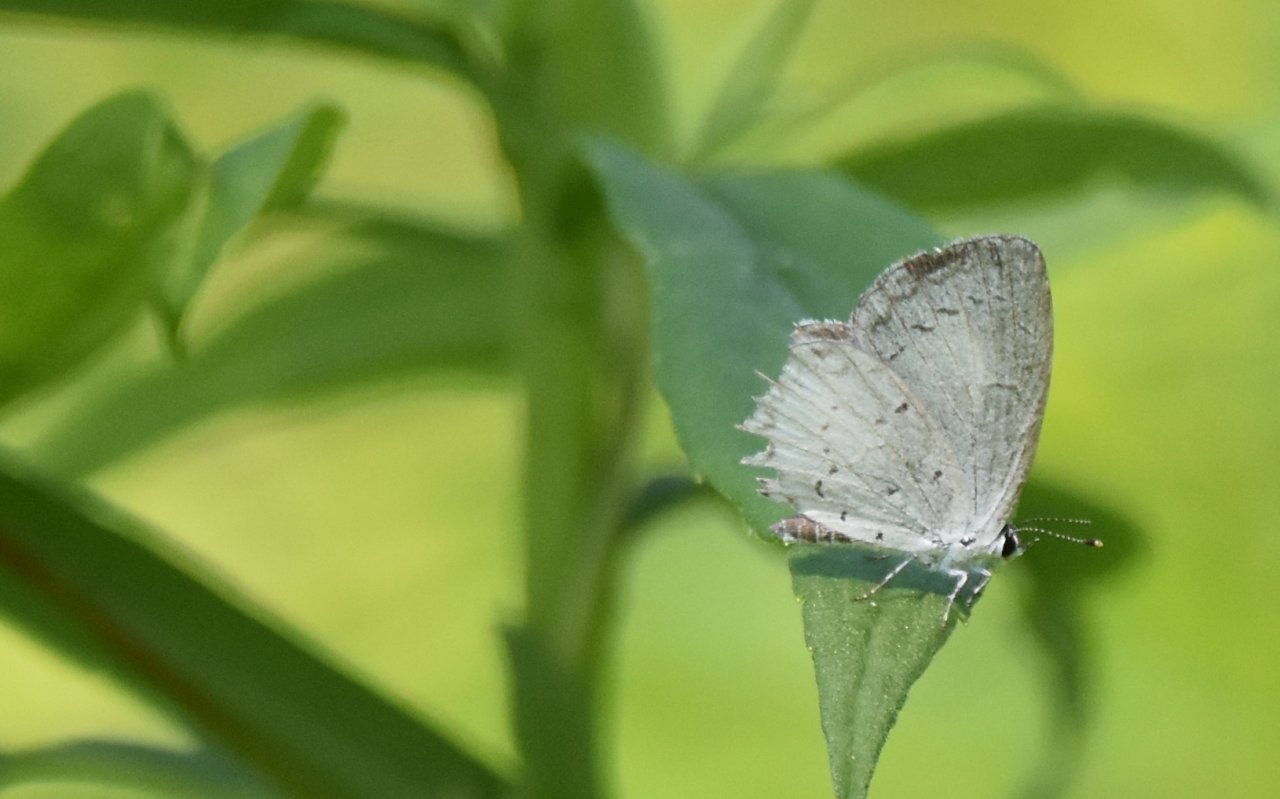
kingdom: Animalia
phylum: Arthropoda
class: Insecta
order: Lepidoptera
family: Lycaenidae
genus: Cyaniris
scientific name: Cyaniris neglecta
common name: Summer Azure
